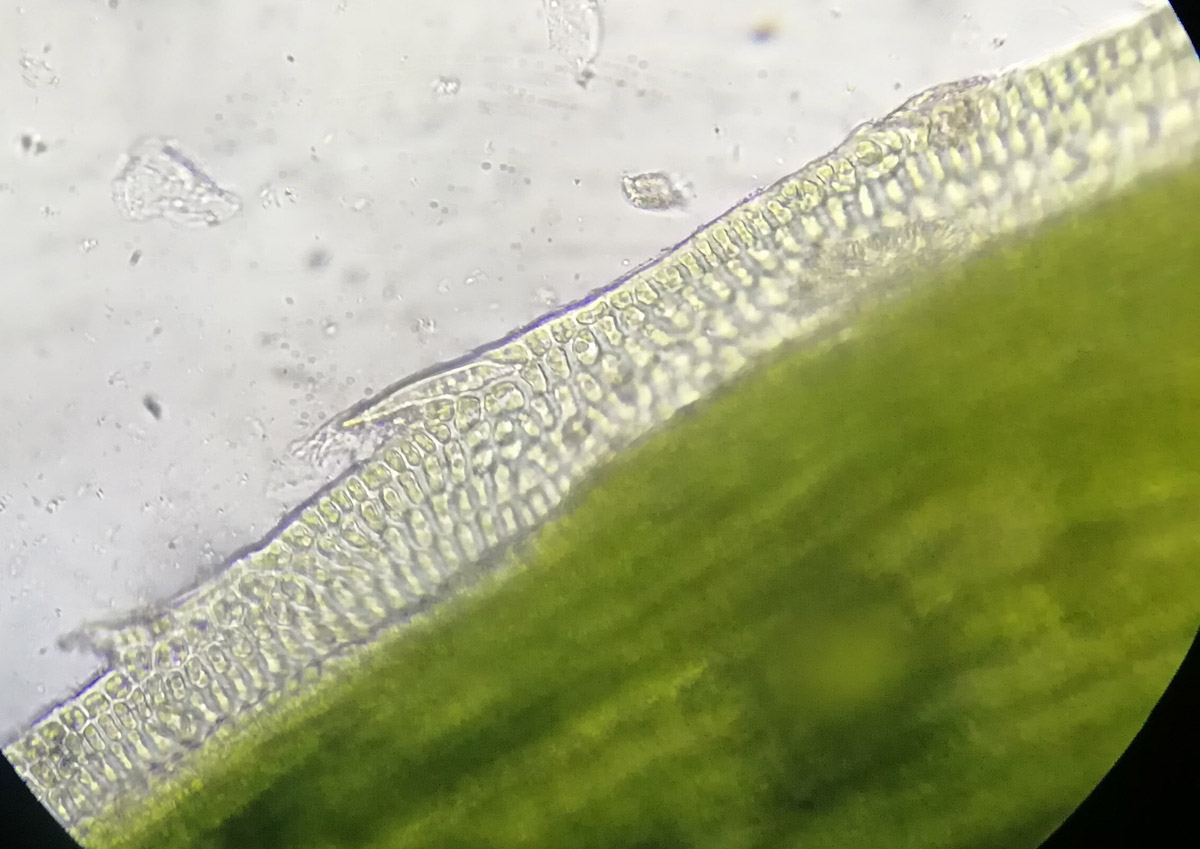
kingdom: Plantae
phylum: Bryophyta
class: Polytrichopsida
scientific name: Polytrichopsida
